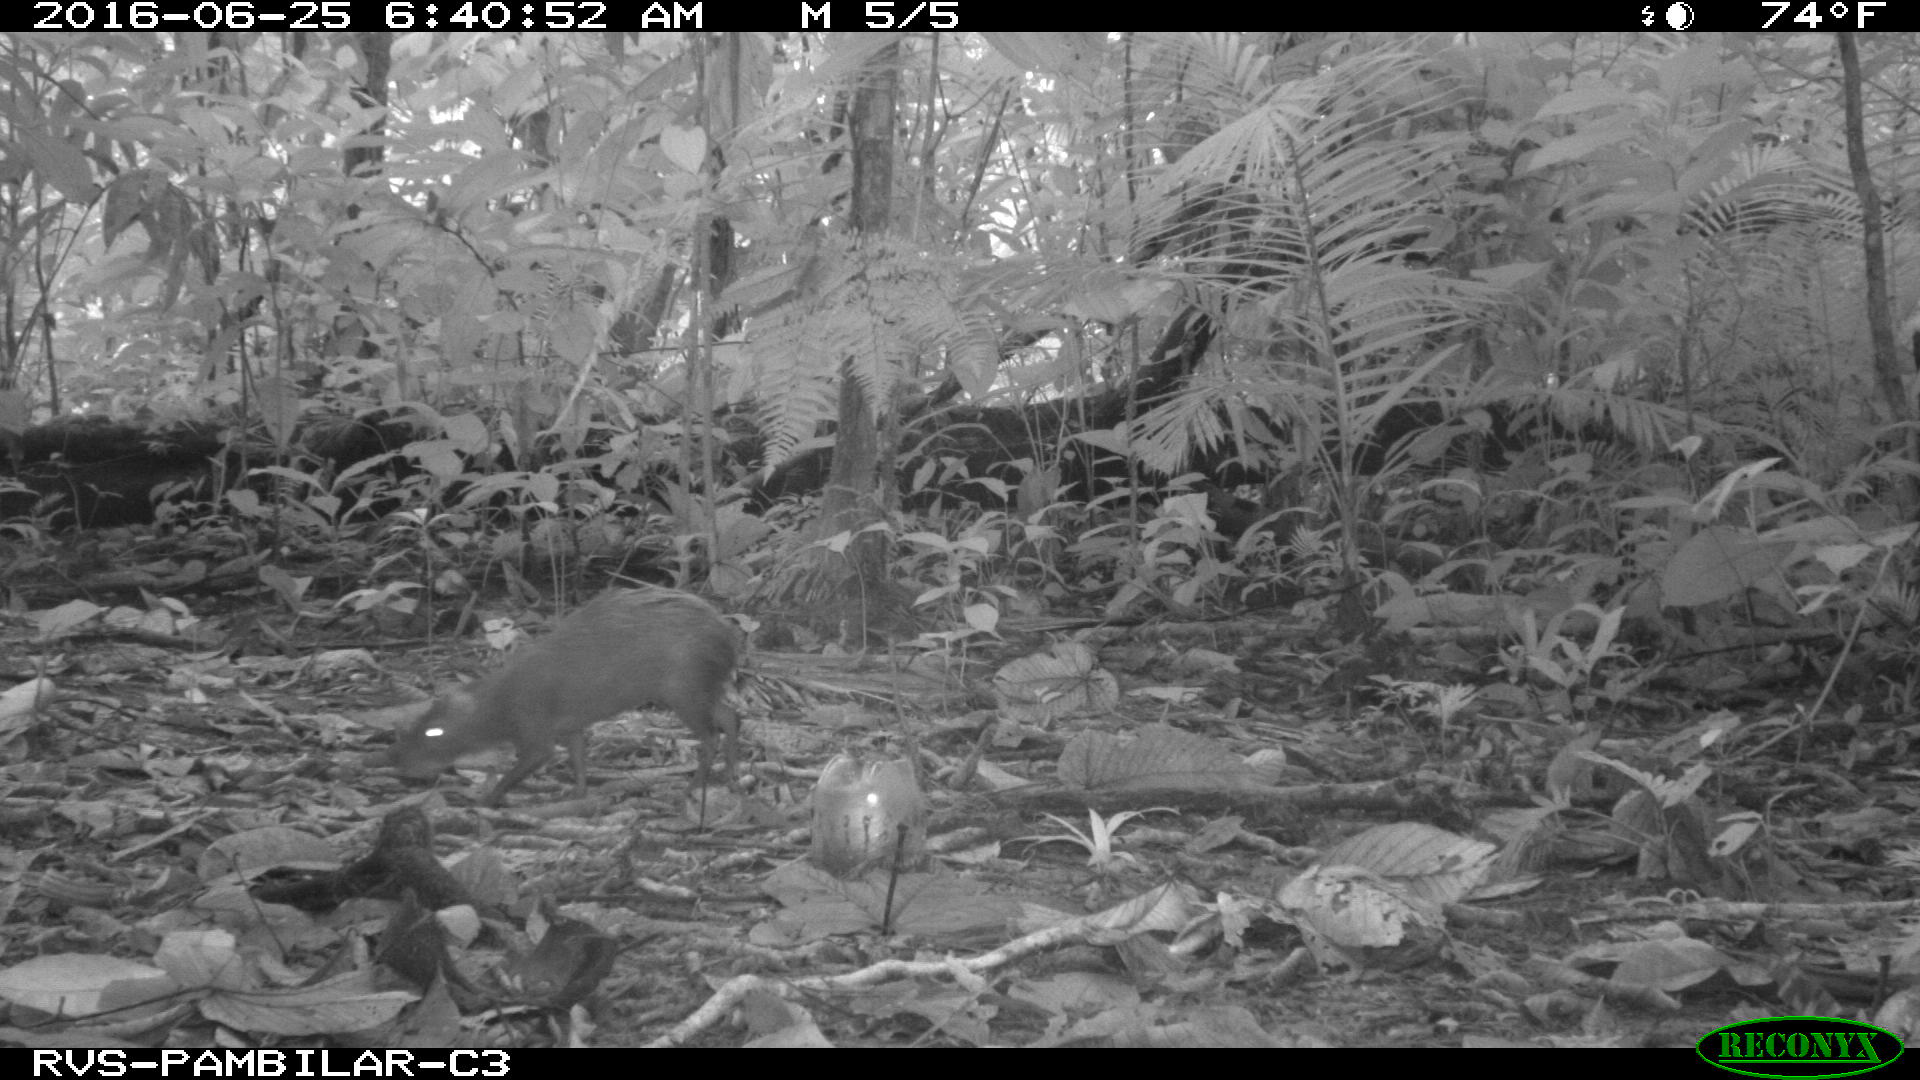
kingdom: Animalia
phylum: Chordata
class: Mammalia
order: Rodentia
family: Dasyproctidae
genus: Dasyprocta
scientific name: Dasyprocta punctata
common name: Central american agouti
